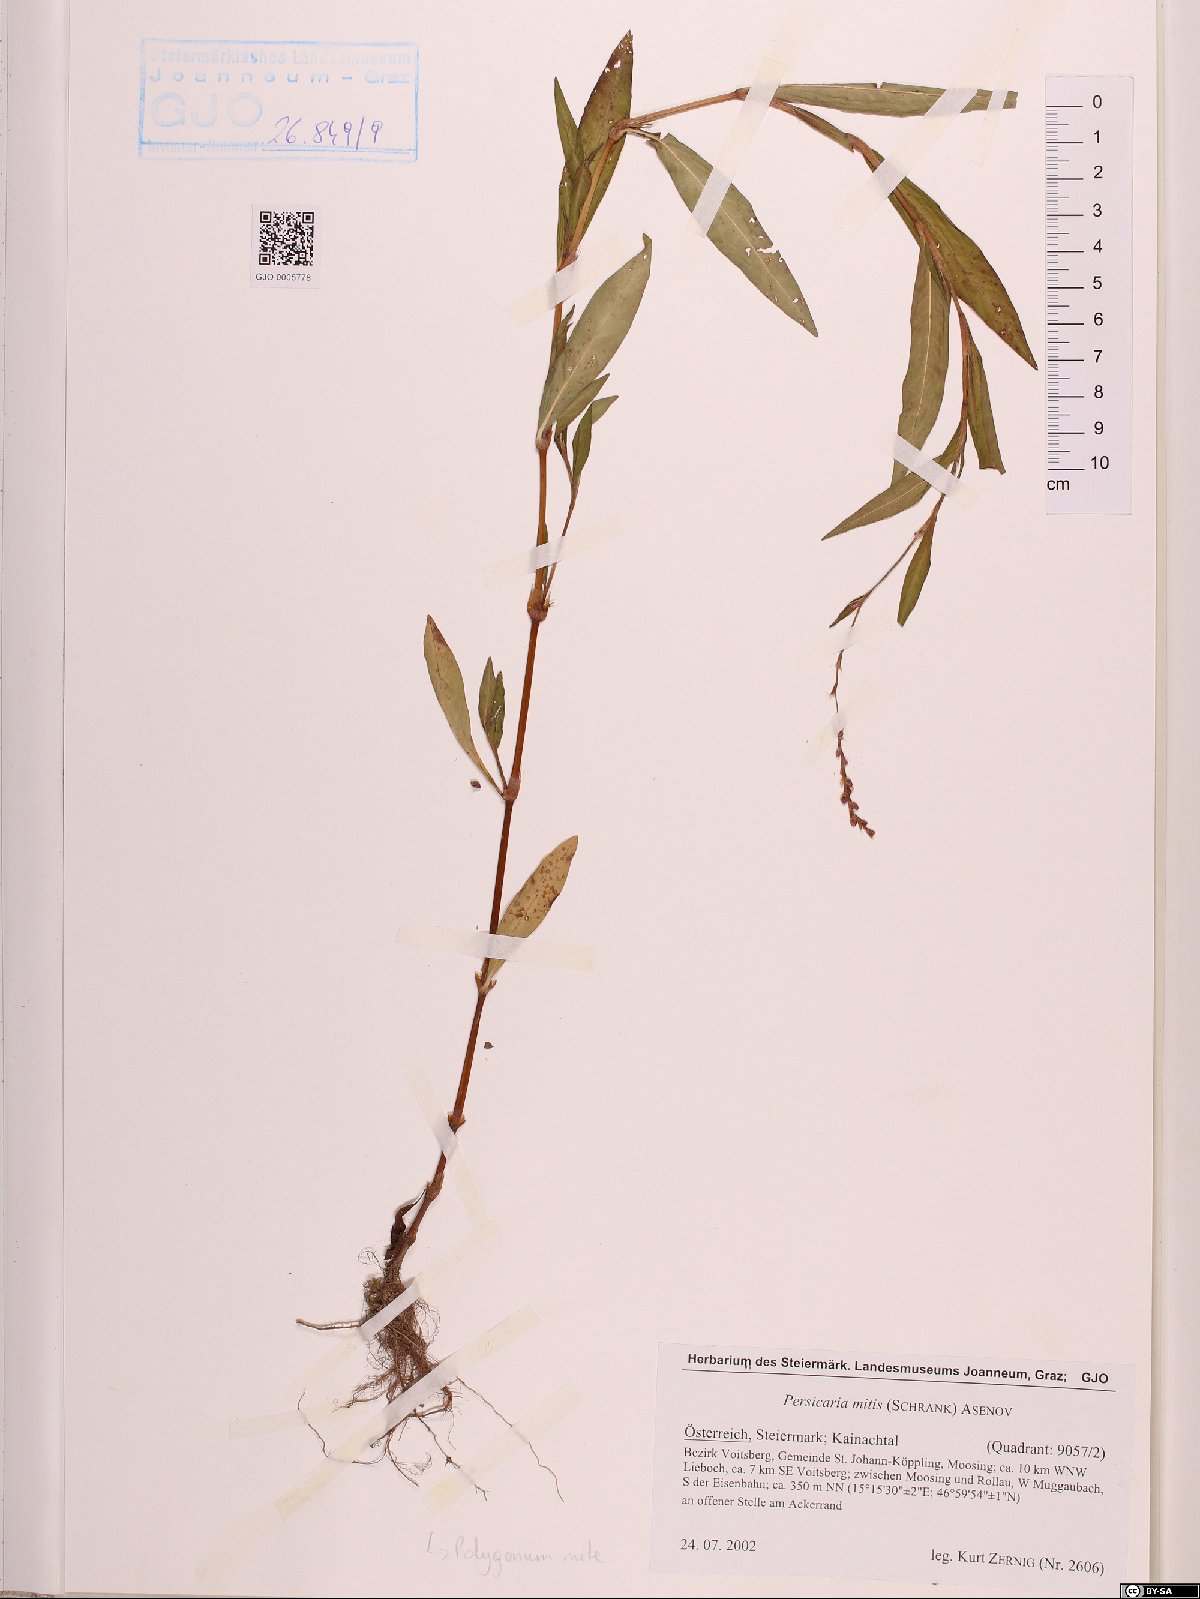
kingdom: Plantae
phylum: Tracheophyta
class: Magnoliopsida
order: Caryophyllales
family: Polygonaceae
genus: Persicaria
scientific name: Persicaria mitis
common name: Tasteless water-pepper
